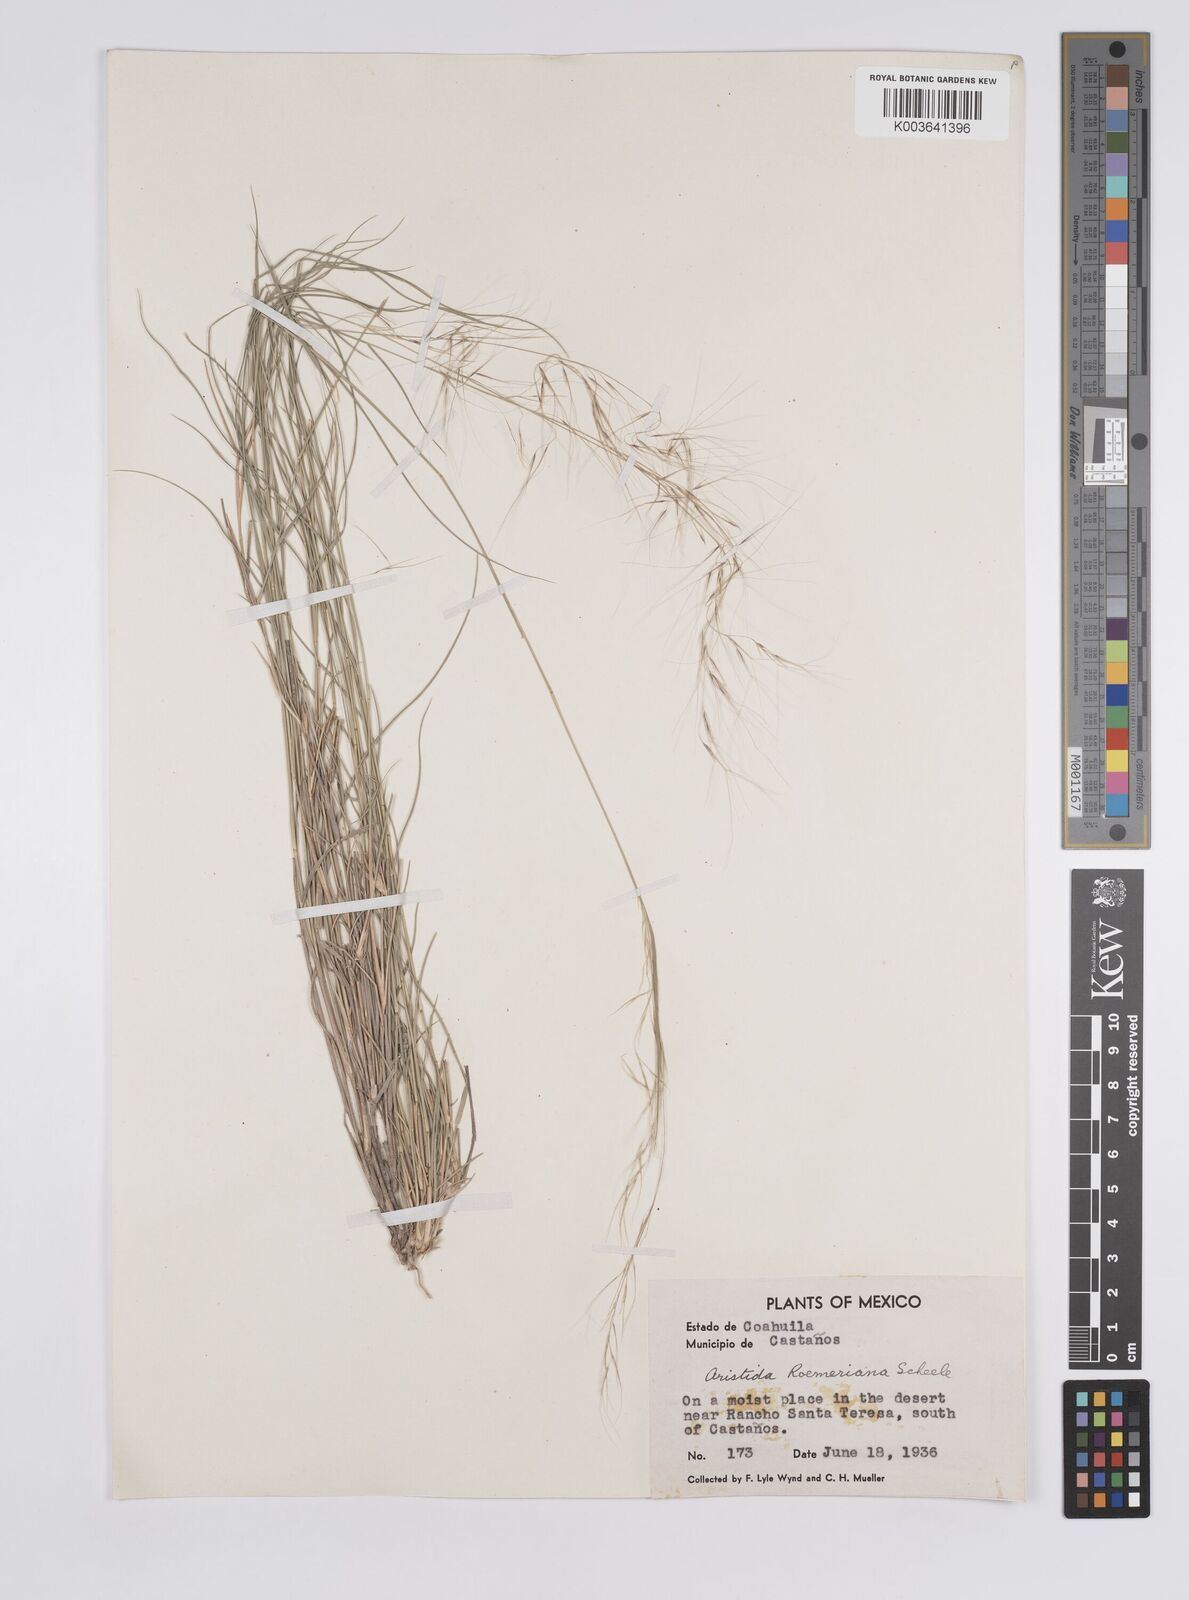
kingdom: Plantae
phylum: Tracheophyta
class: Liliopsida
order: Poales
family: Poaceae
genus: Aristida
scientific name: Aristida purpurea
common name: Purple threeawn
